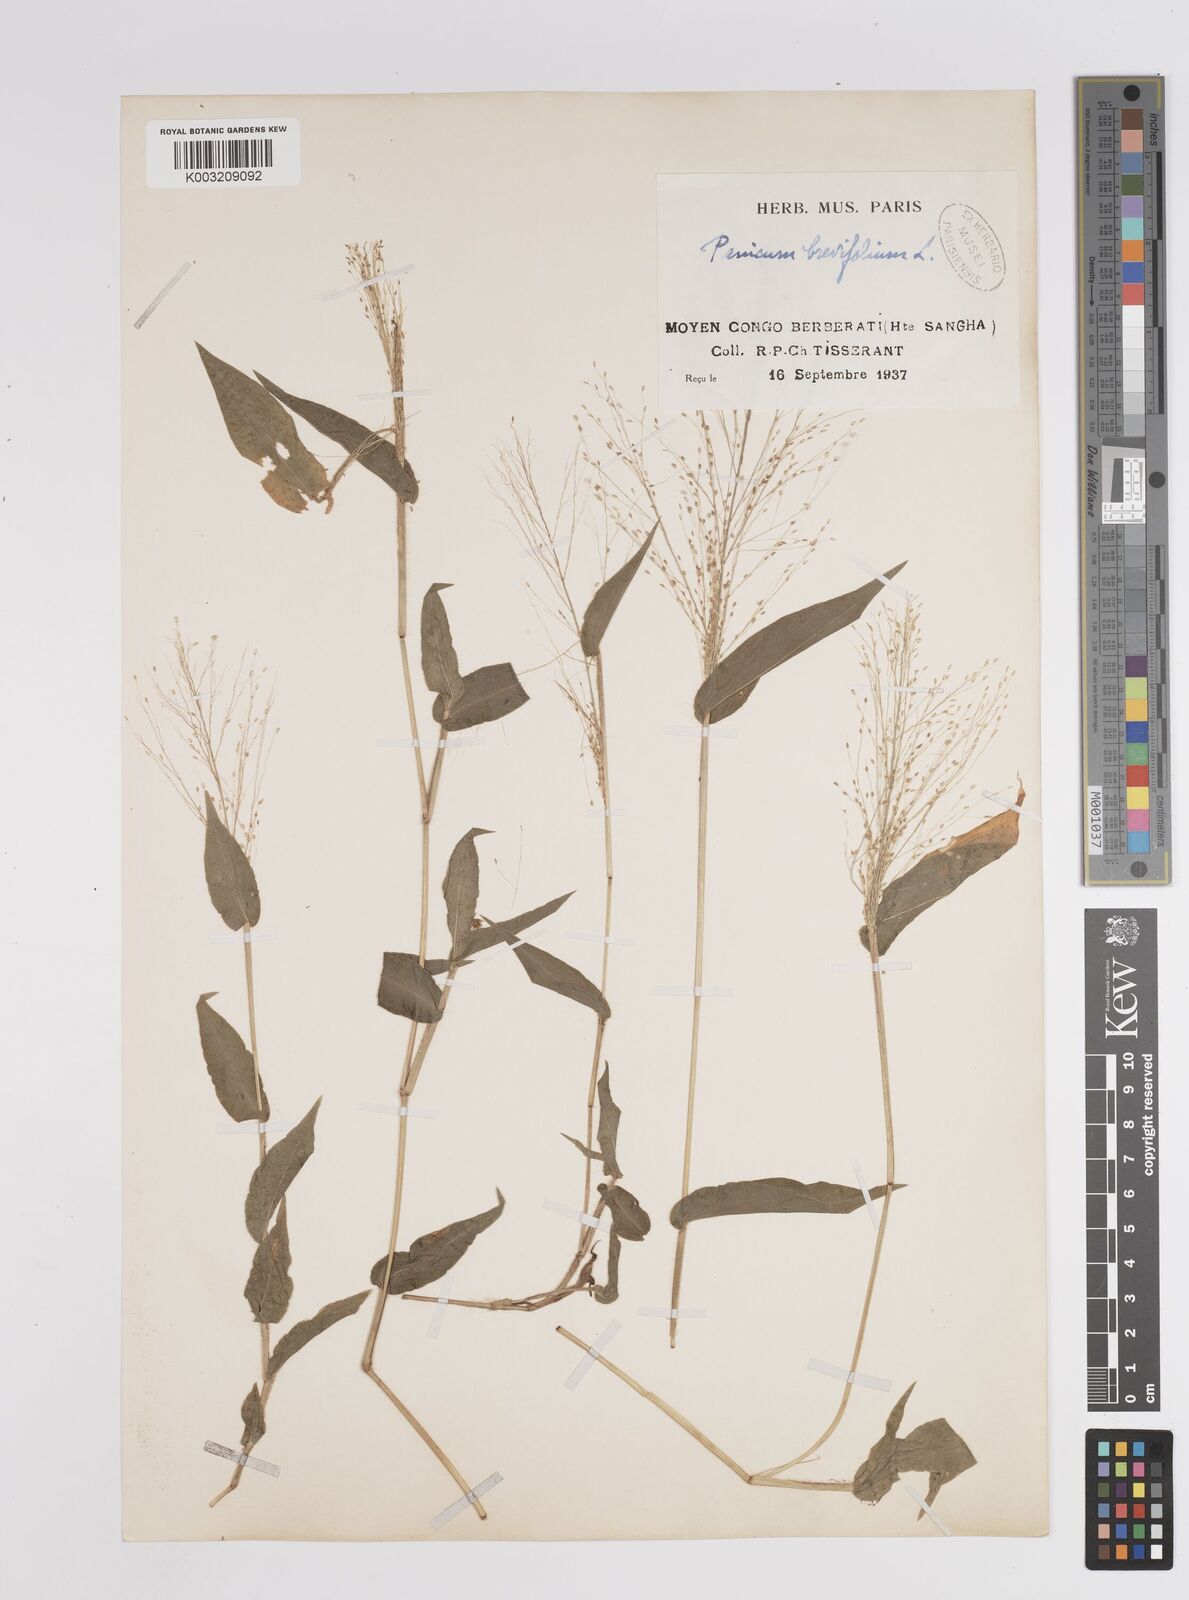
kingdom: Plantae
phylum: Tracheophyta
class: Liliopsida
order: Poales
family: Poaceae
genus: Panicum
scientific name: Panicum brevifolium
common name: Shortleaf panic grass
